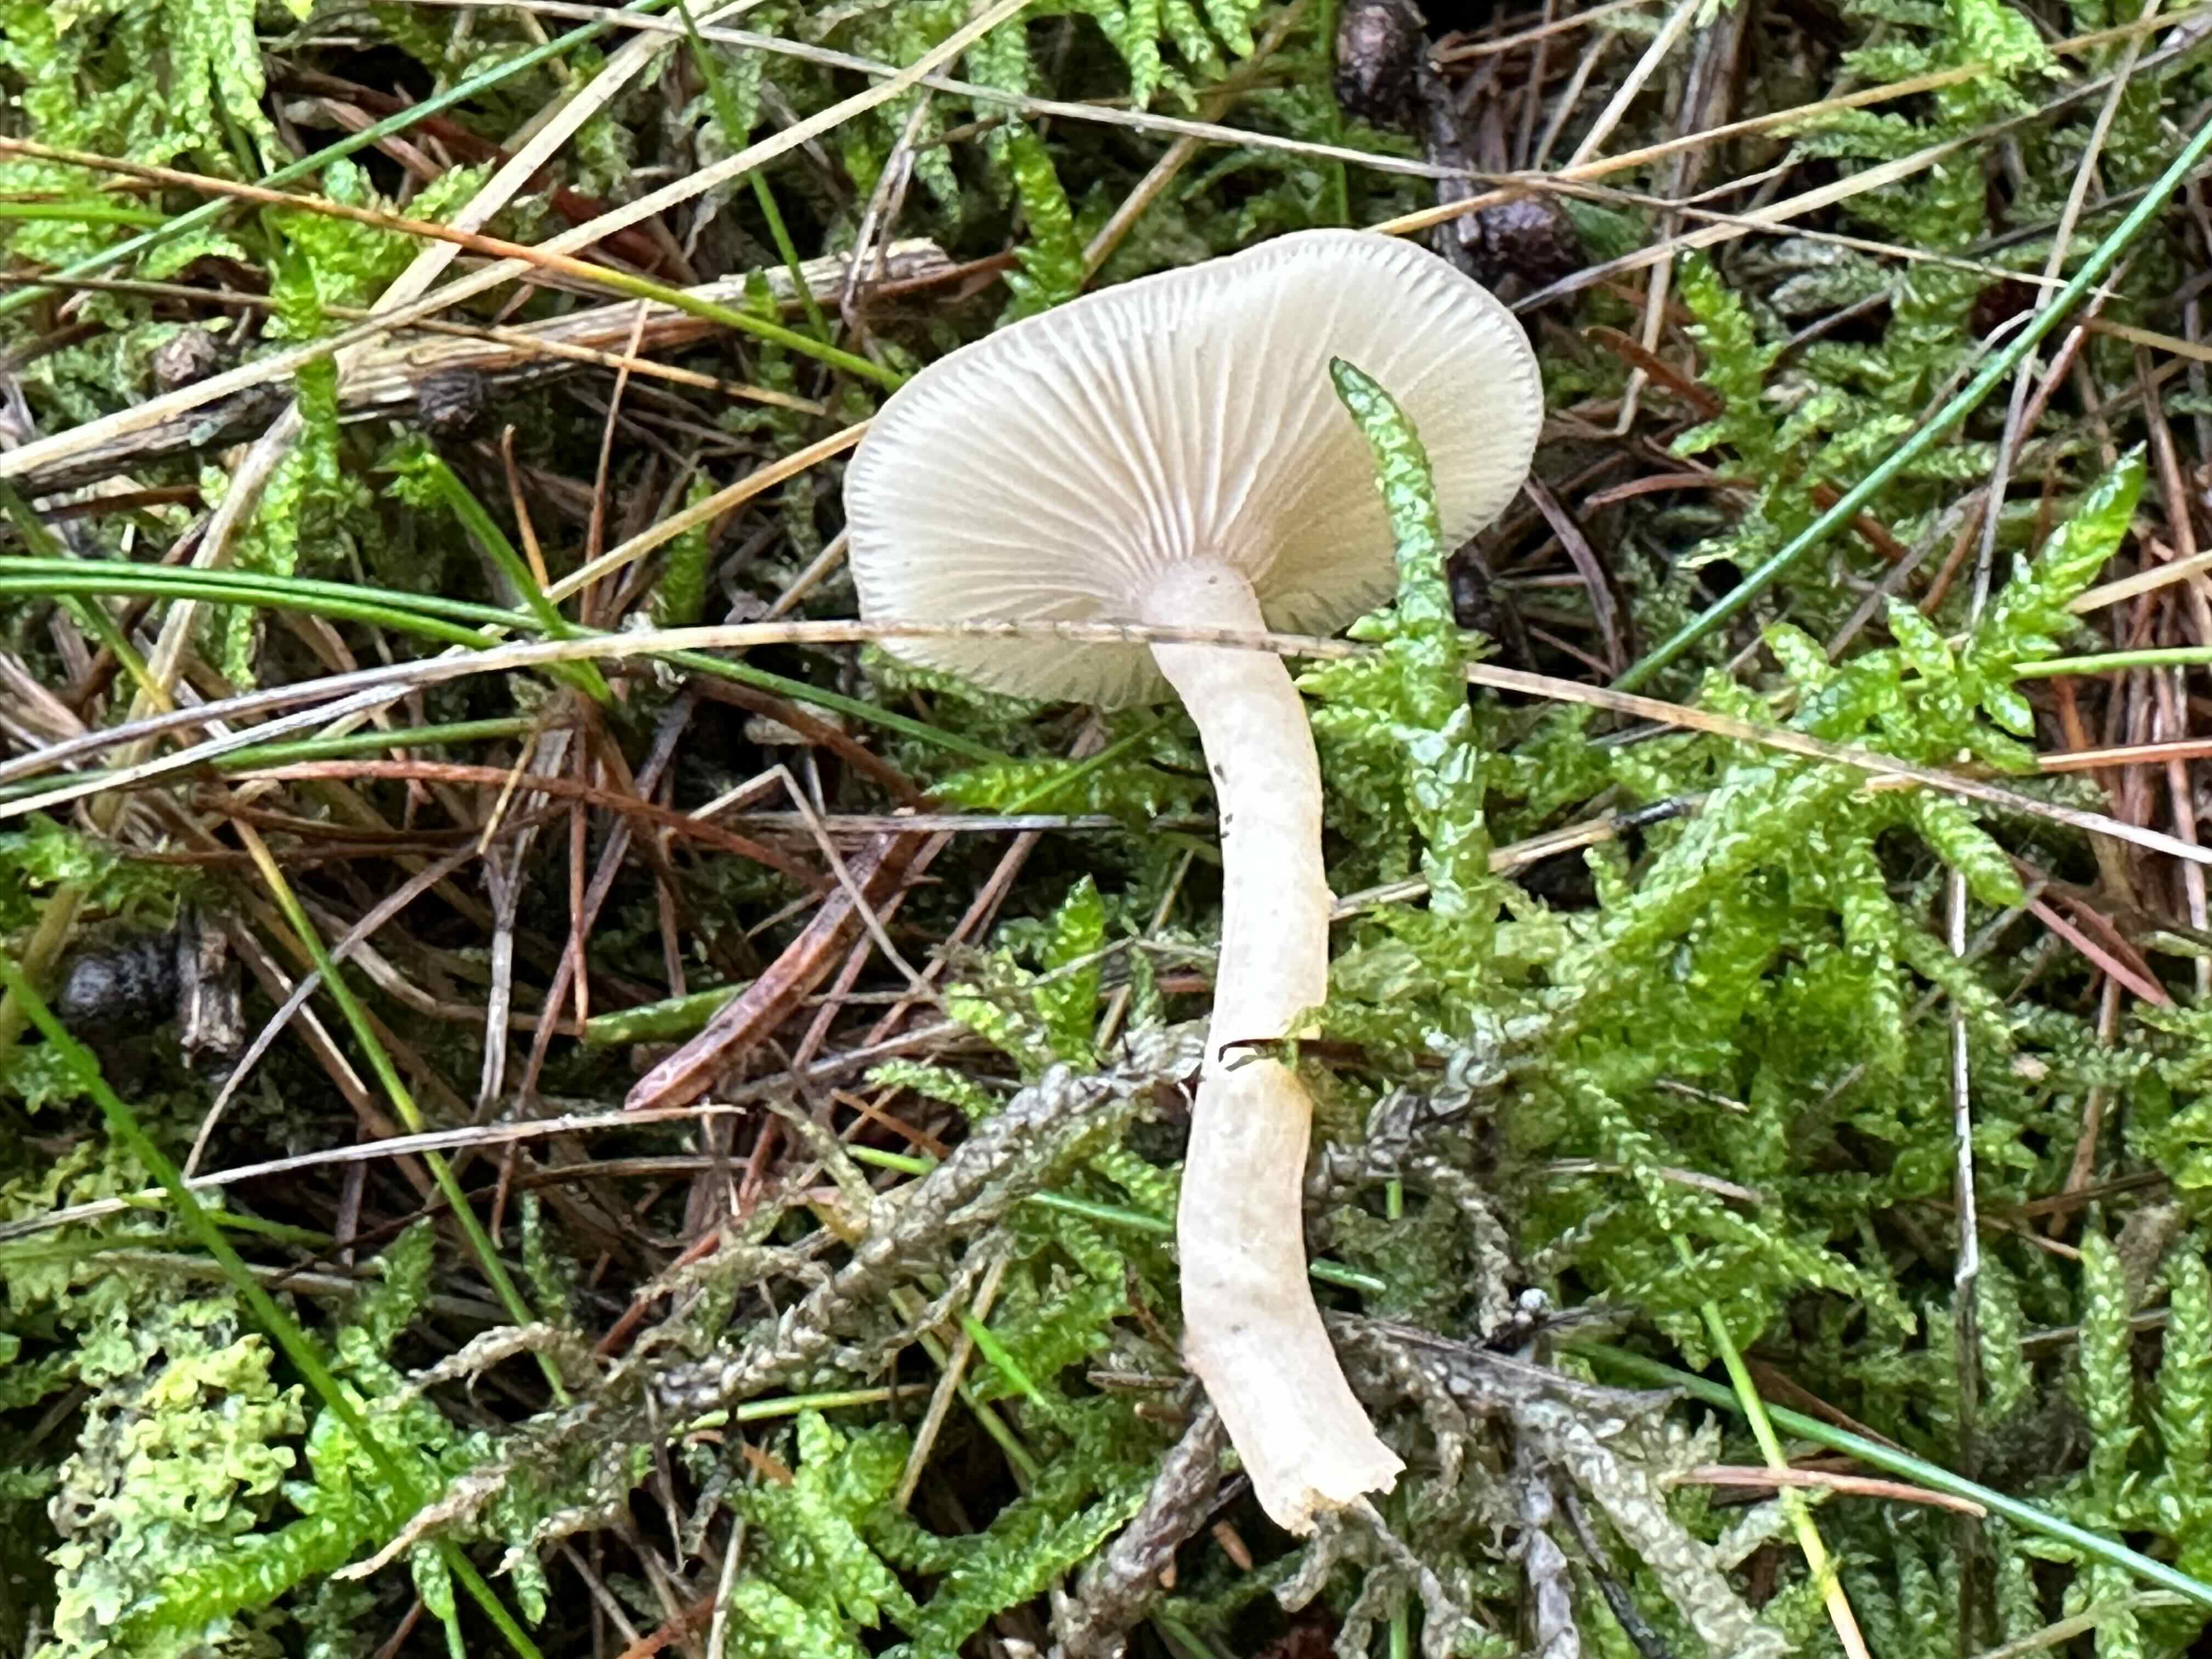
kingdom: Fungi
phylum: Basidiomycota
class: Agaricomycetes
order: Agaricales
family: Tricholomataceae
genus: Clitocybe
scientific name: Clitocybe fragrans
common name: vellugtende tragthat
